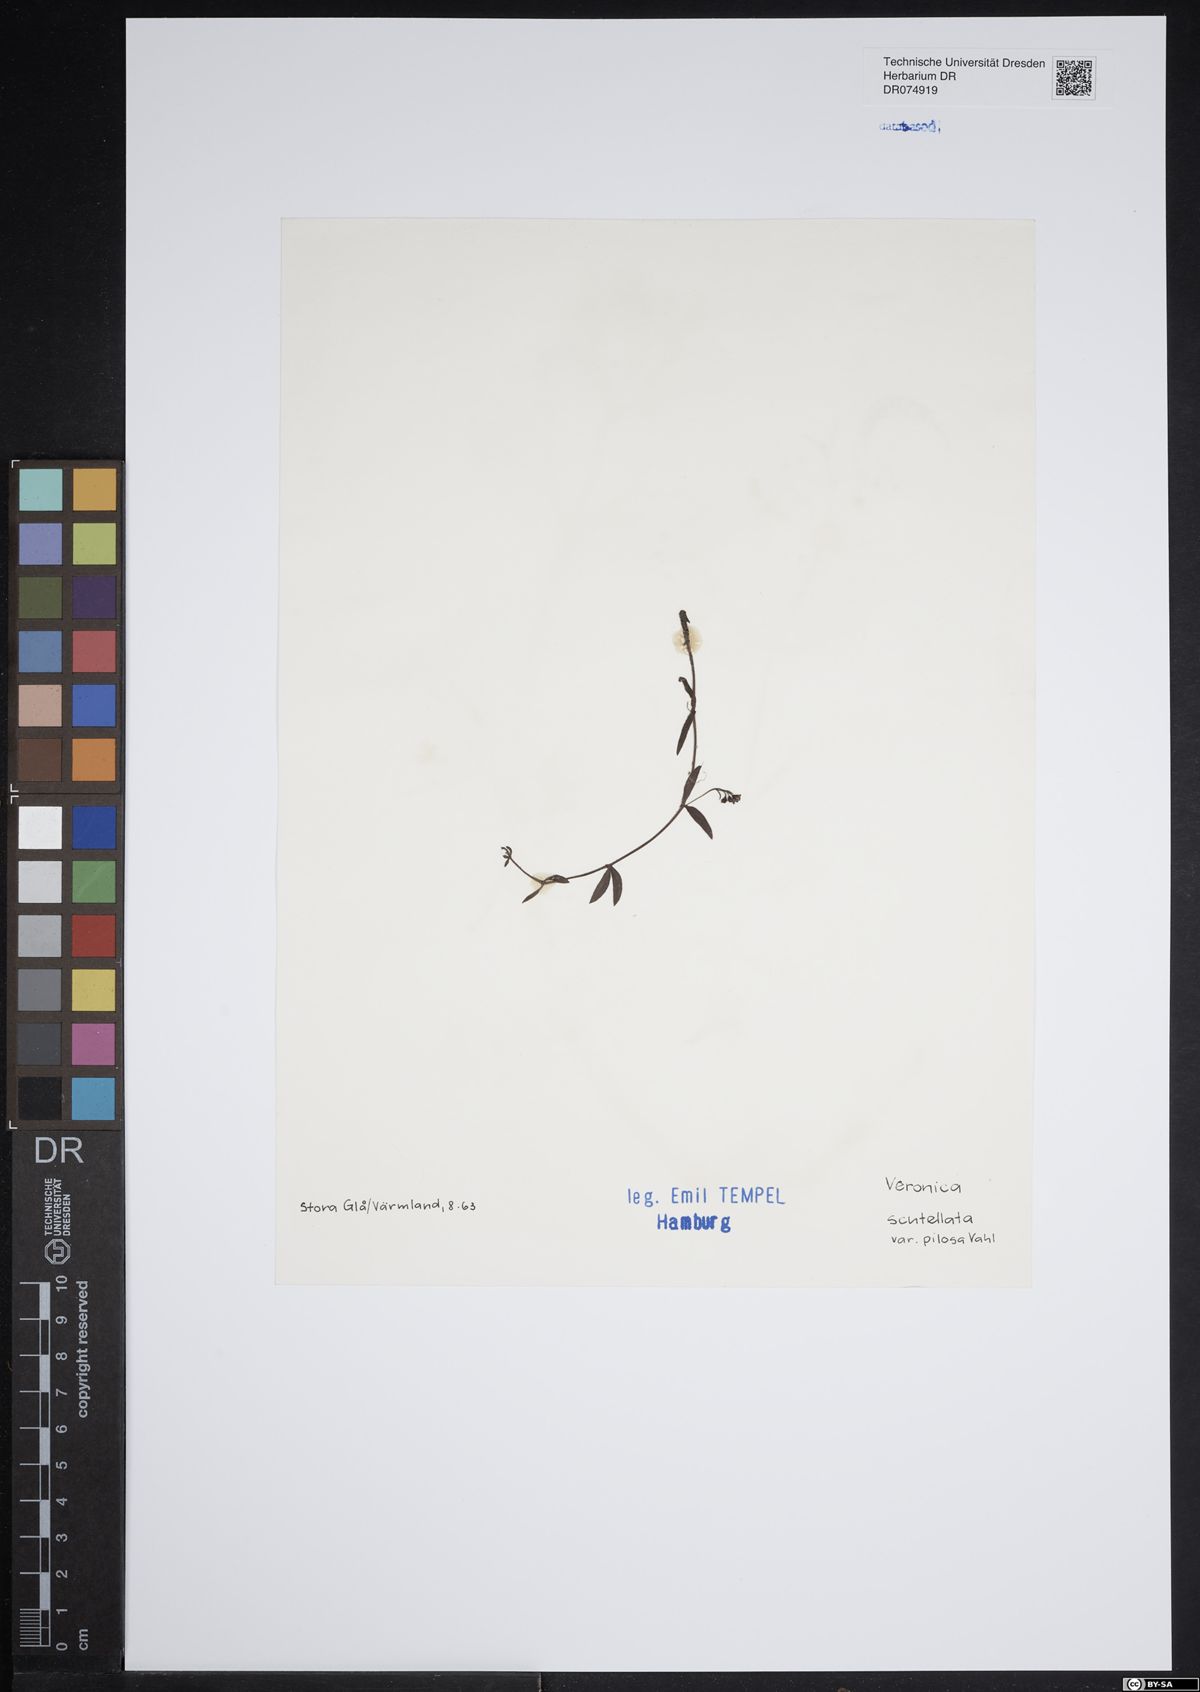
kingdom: Plantae
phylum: Tracheophyta
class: Magnoliopsida
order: Lamiales
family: Plantaginaceae
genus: Veronica
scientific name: Veronica scutellata
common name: Marsh speedwell
